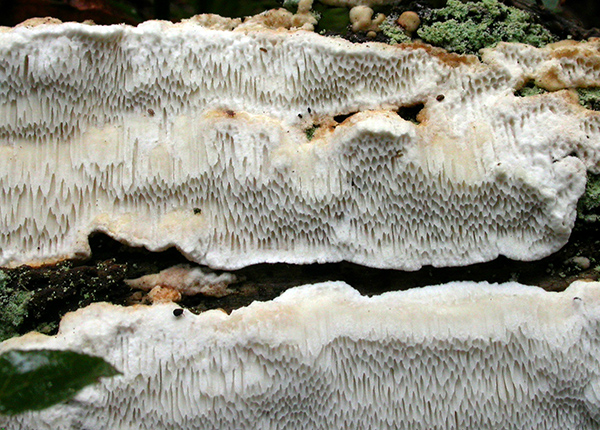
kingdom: Fungi
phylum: Basidiomycota
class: Agaricomycetes
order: Polyporales
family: Fomitopsidaceae
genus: Antrodia
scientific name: Antrodia sinuosa
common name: tømmer-sejporesvamp
